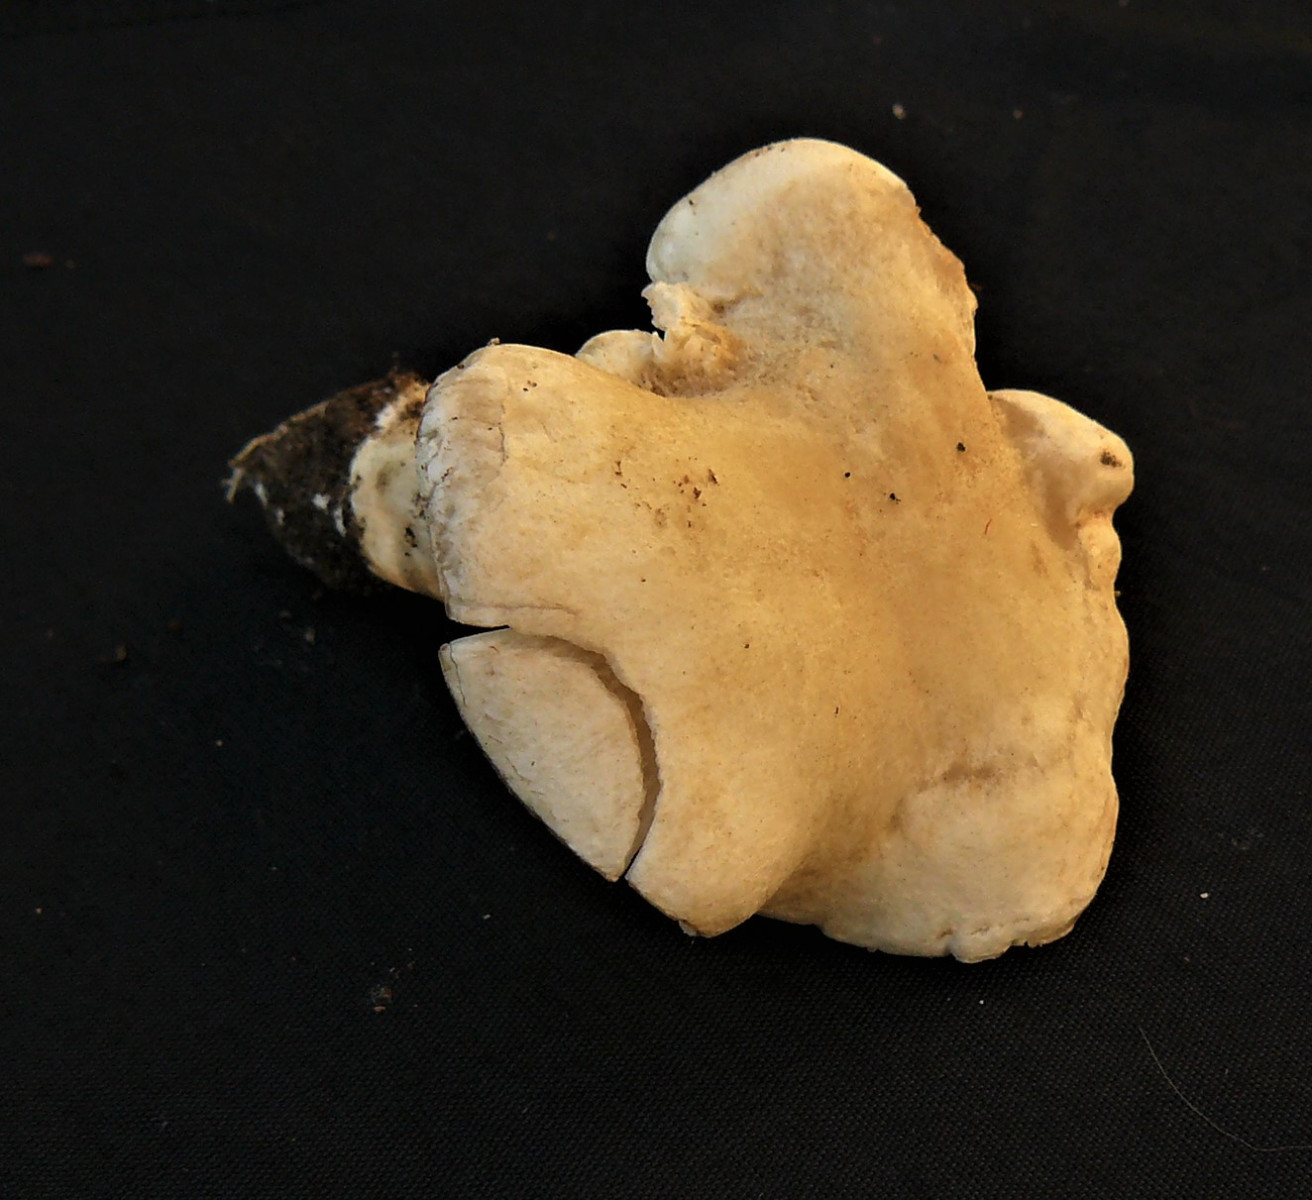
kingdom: Fungi
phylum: Basidiomycota
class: Agaricomycetes
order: Agaricales
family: Tricholomataceae
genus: Tricholoma
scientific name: Tricholoma lascivum
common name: stinkende ridderhat
